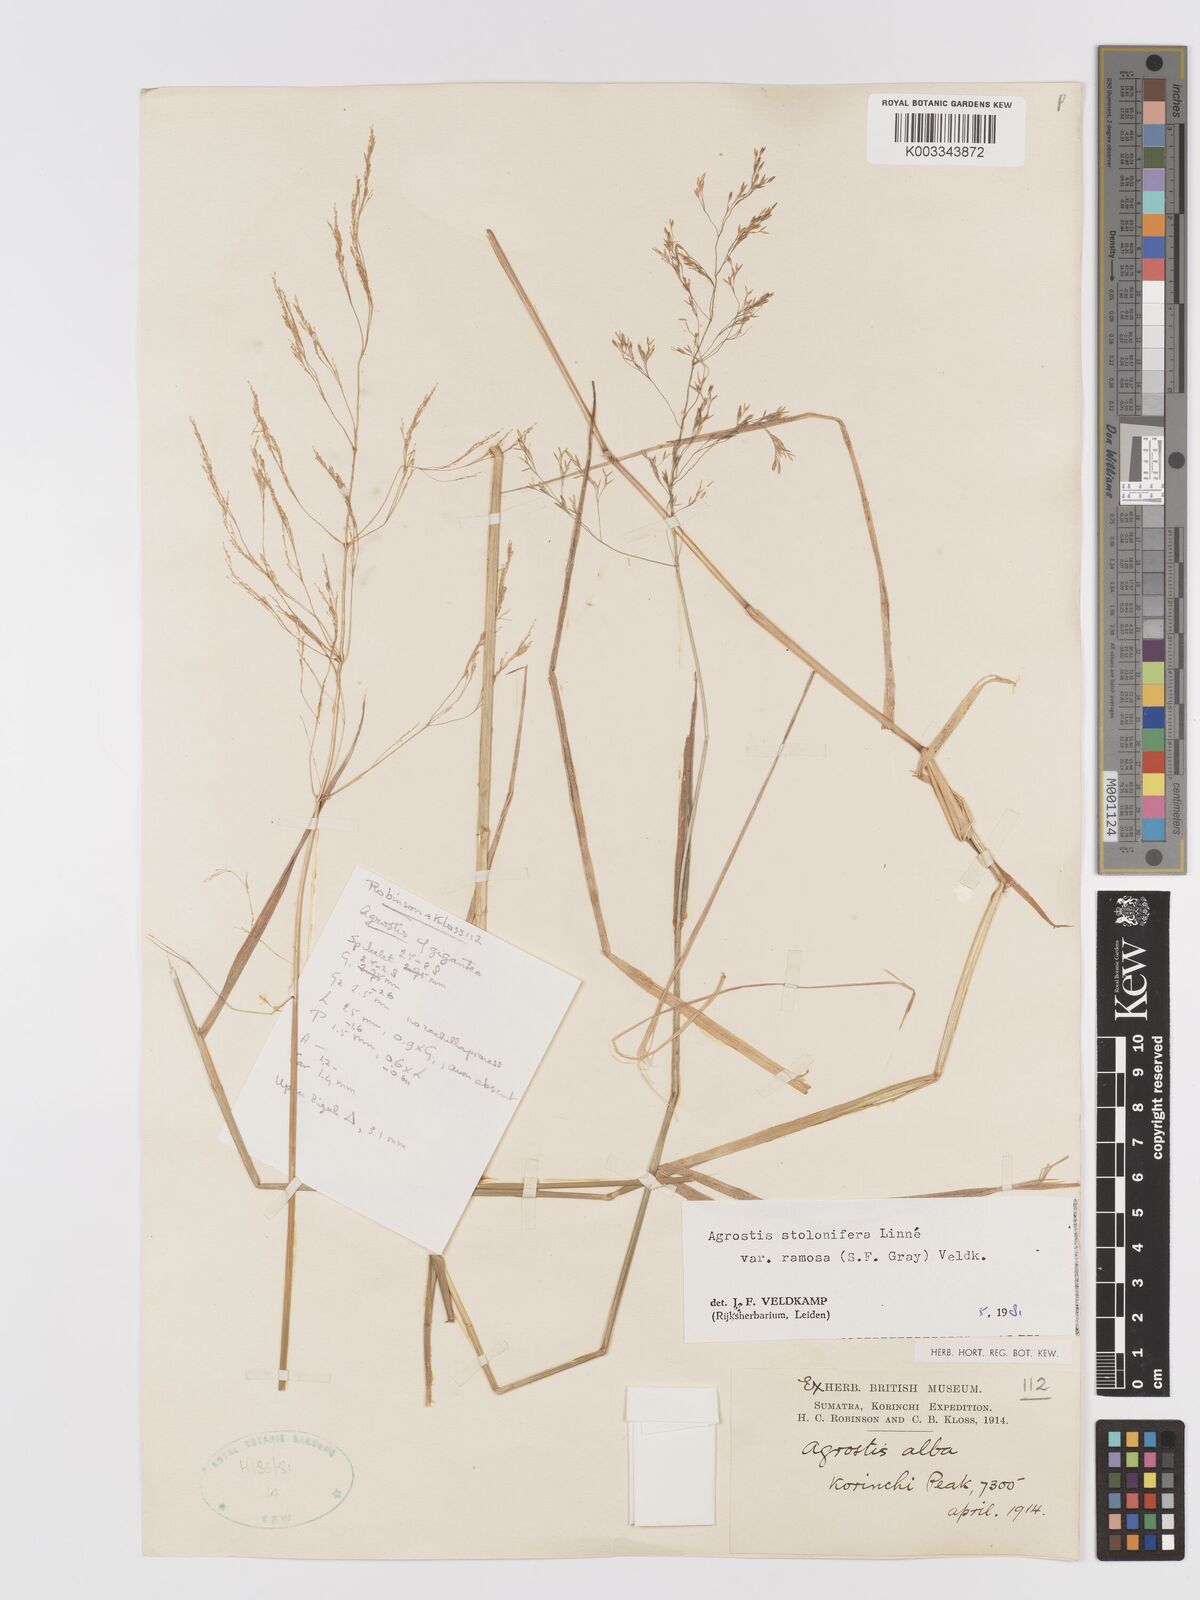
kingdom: Plantae
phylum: Tracheophyta
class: Liliopsida
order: Poales
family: Poaceae
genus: Agrostis
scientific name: Agrostis gigantea
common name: Black bent
